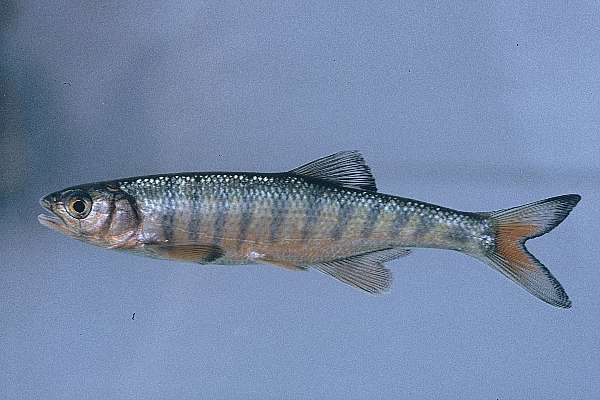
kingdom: Animalia
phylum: Chordata
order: Cypriniformes
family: Cyprinidae
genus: Opsaridium
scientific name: Opsaridium microcephalum
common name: Lake trout
